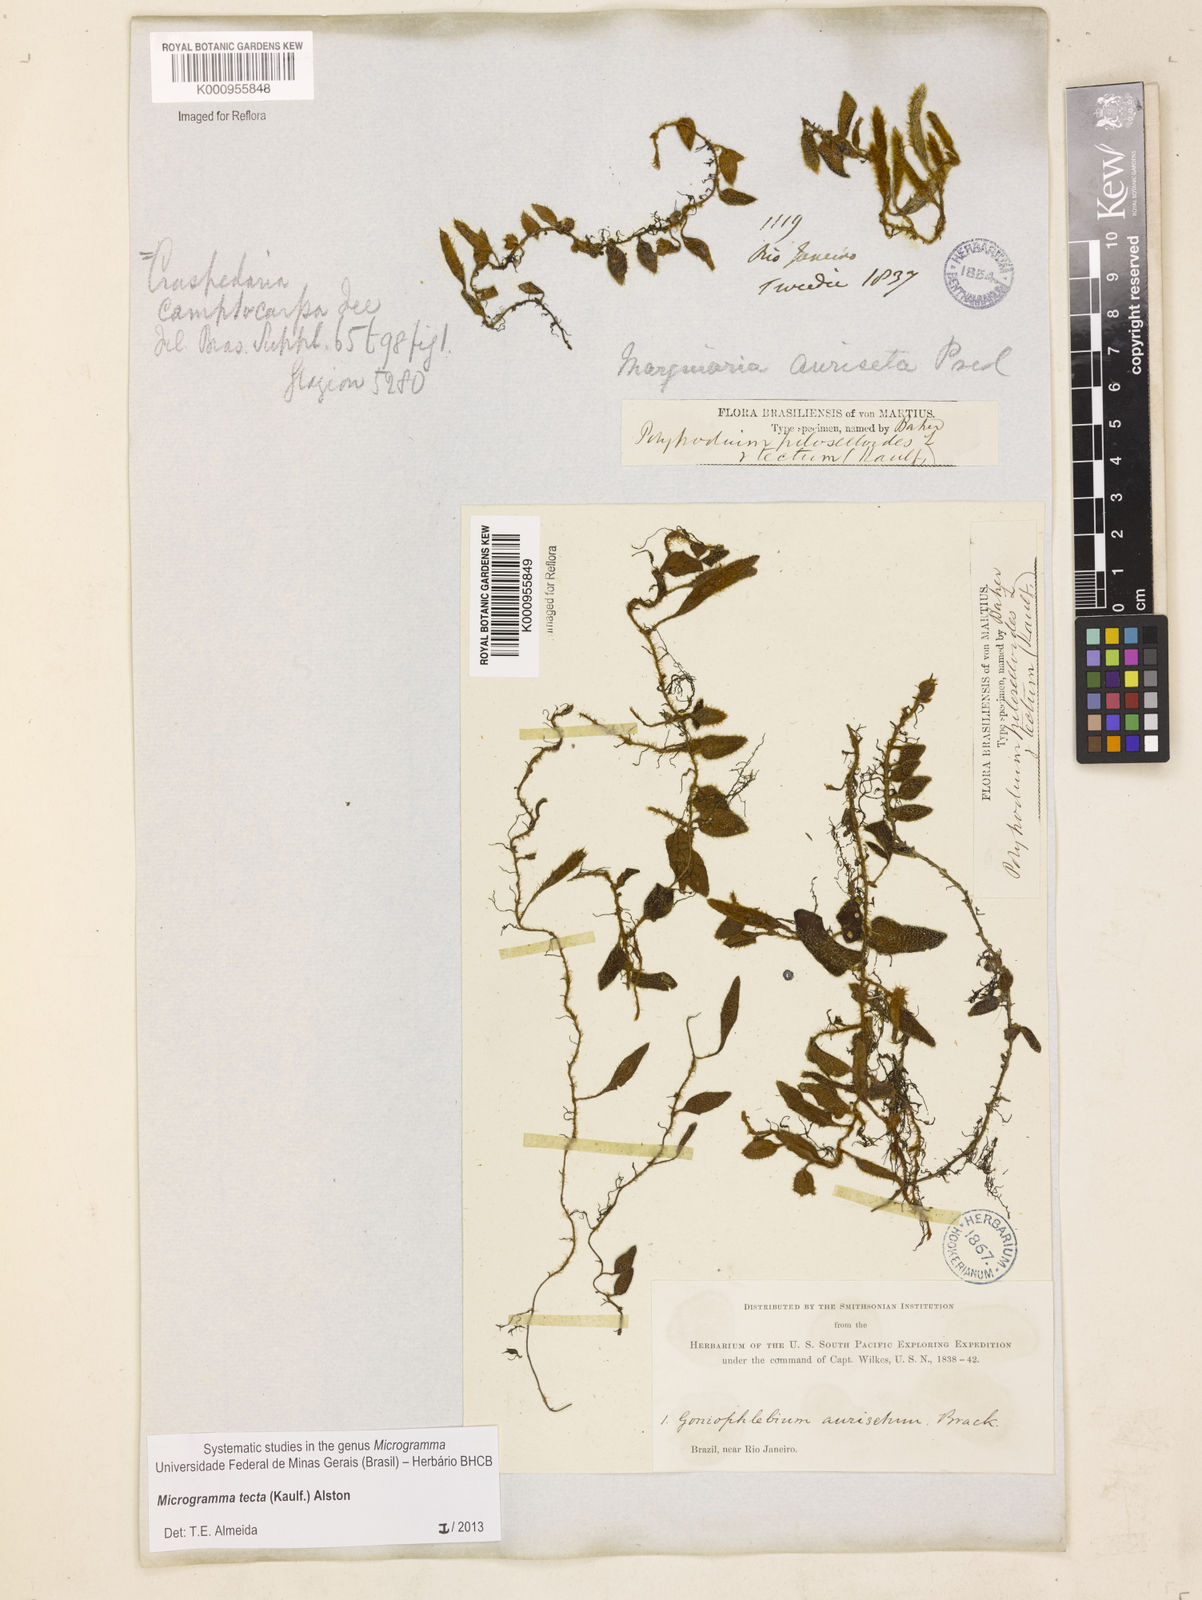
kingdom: Plantae
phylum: Tracheophyta
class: Polypodiopsida
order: Polypodiales
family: Polypodiaceae
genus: Microgramma
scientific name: Microgramma tecta
